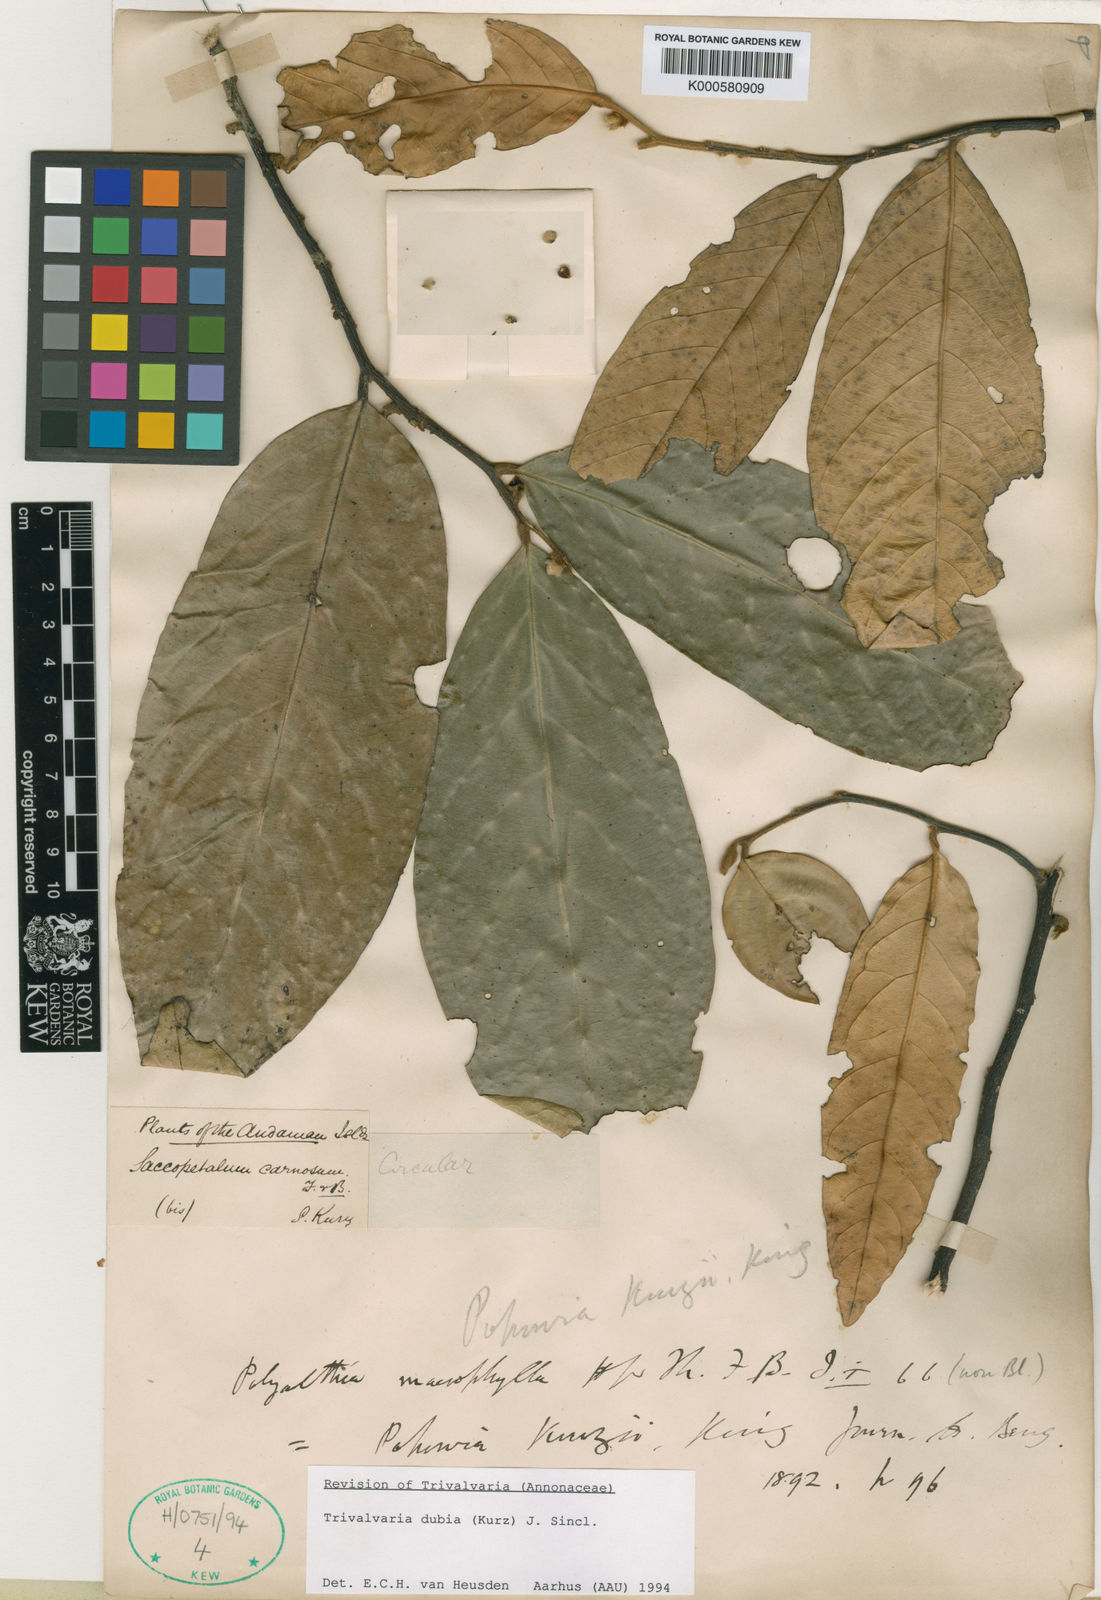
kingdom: Plantae
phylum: Tracheophyta
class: Magnoliopsida
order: Magnoliales
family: Annonaceae
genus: Trivalvaria
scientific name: Trivalvaria dubia
